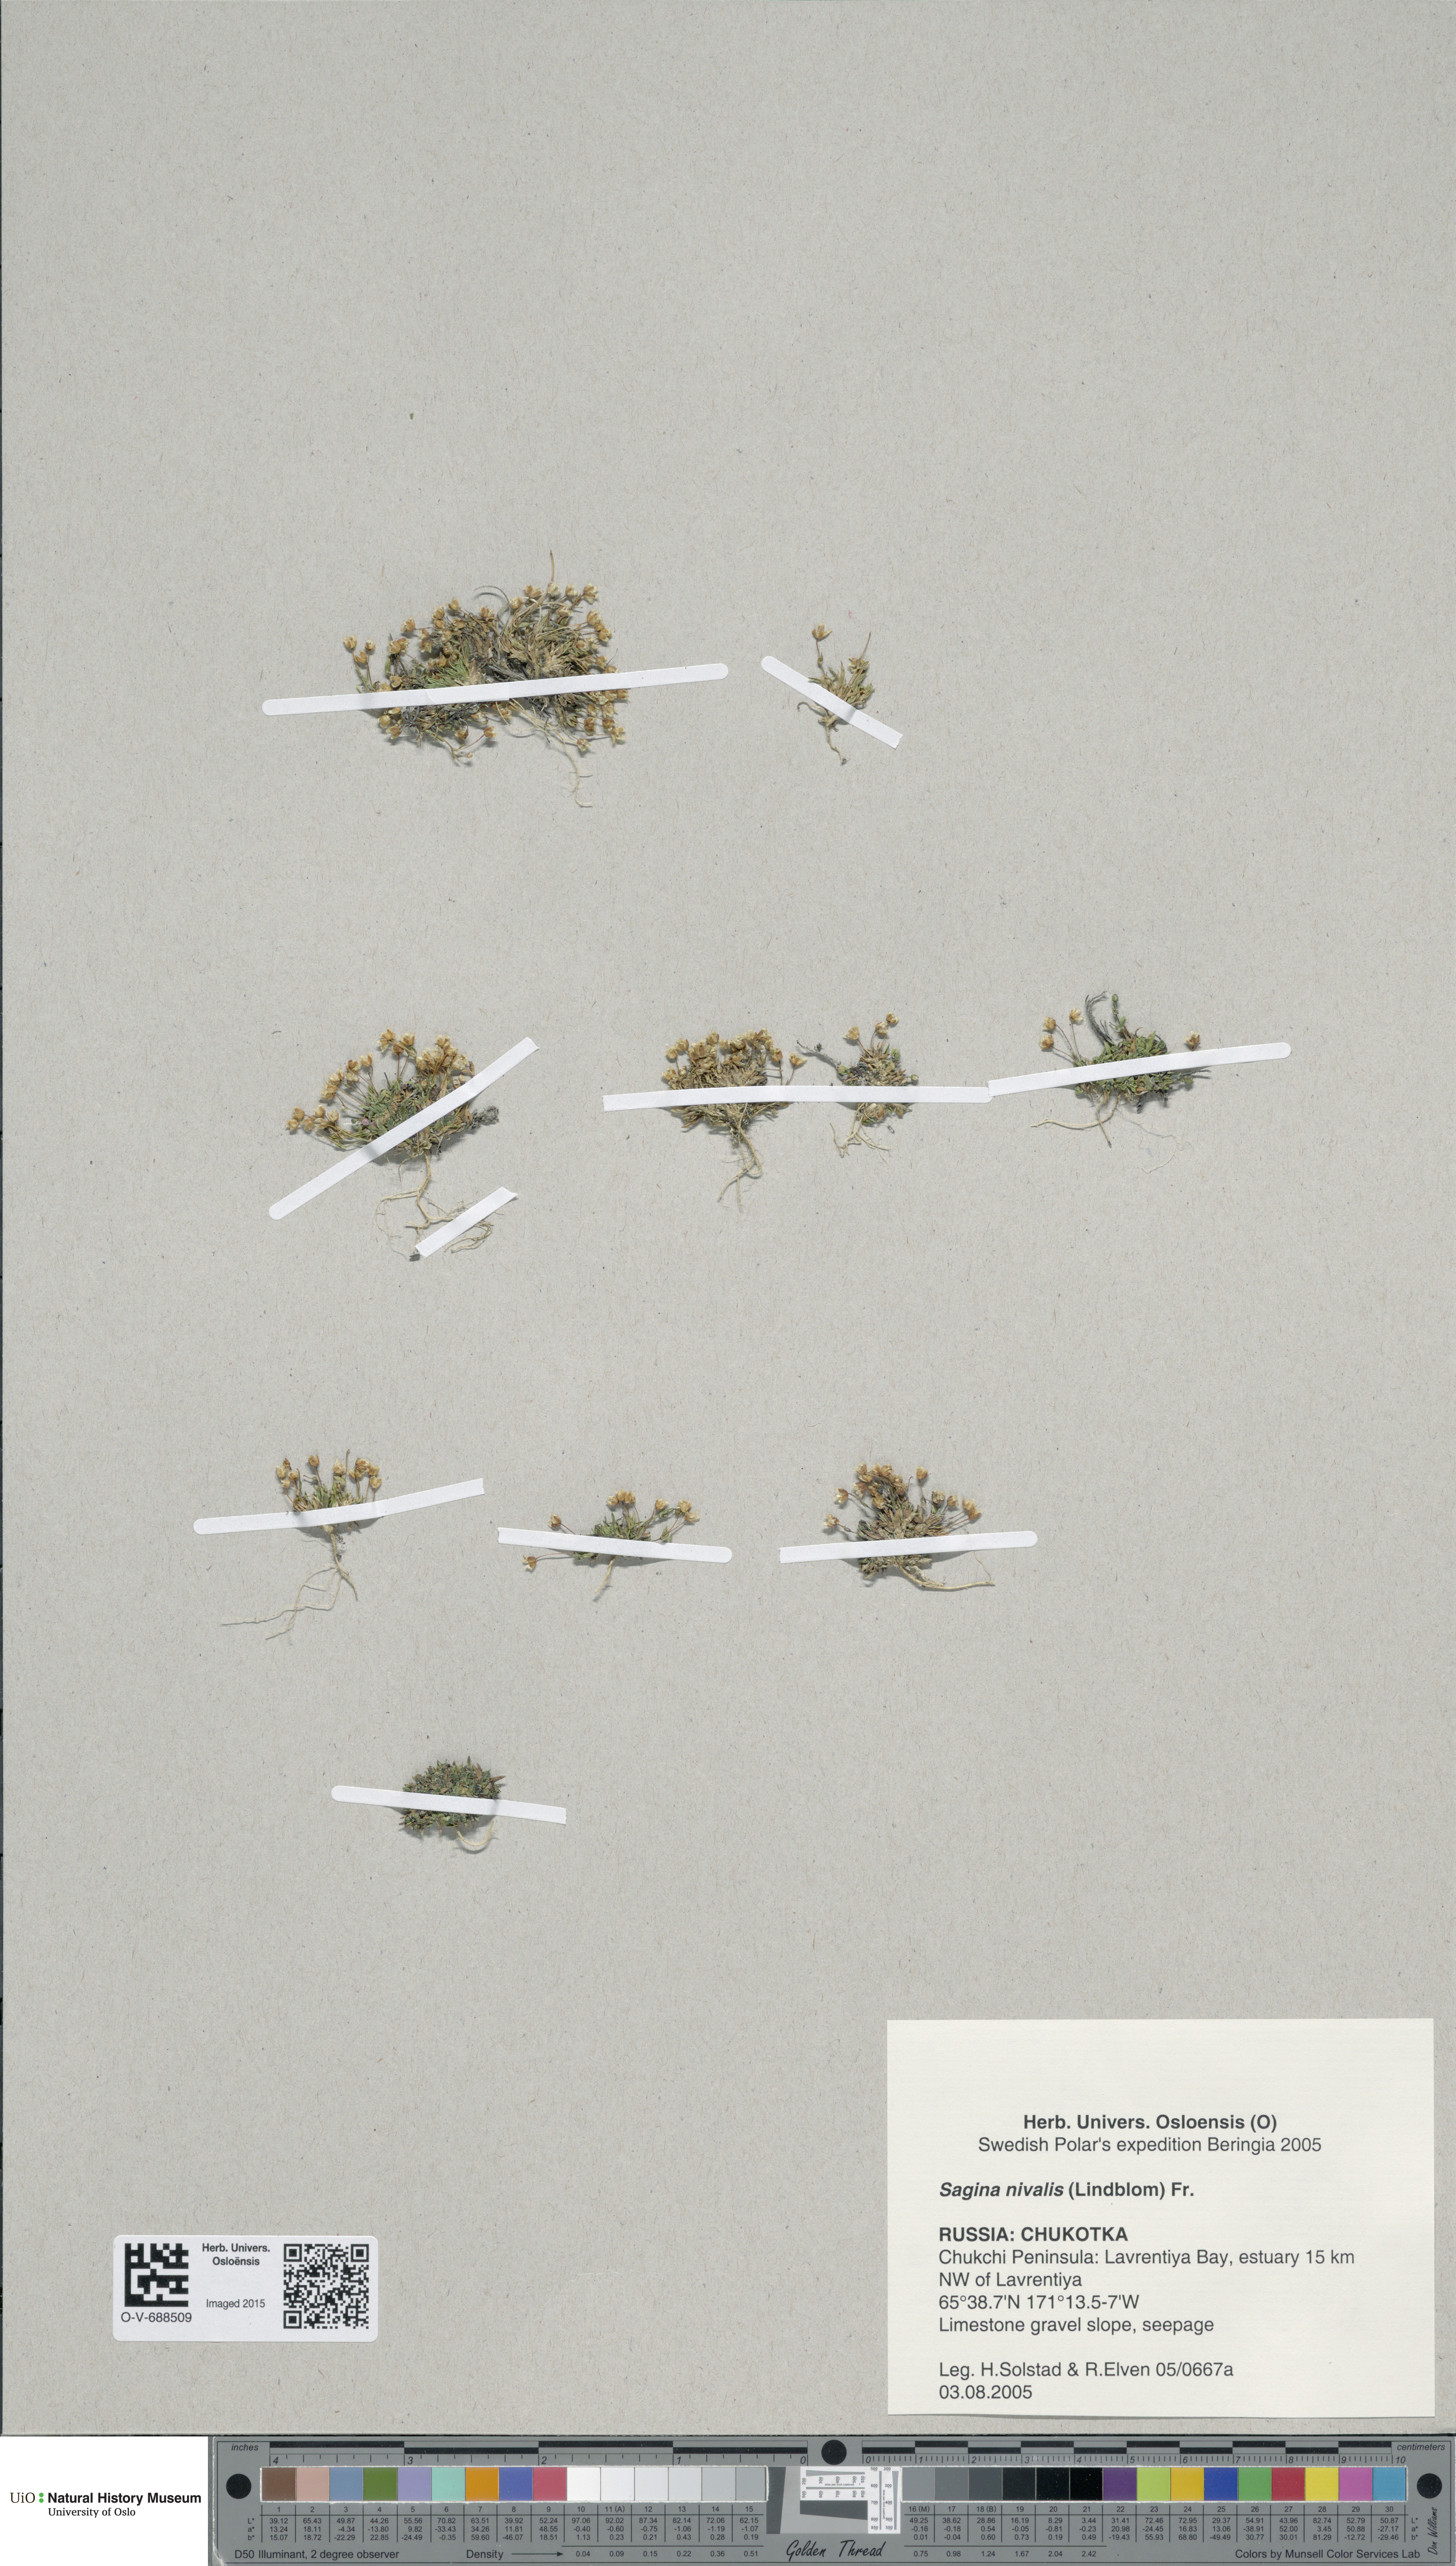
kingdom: Plantae
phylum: Tracheophyta
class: Magnoliopsida
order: Caryophyllales
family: Caryophyllaceae
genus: Sagina
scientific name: Sagina nivalis
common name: Snow pearlwort
